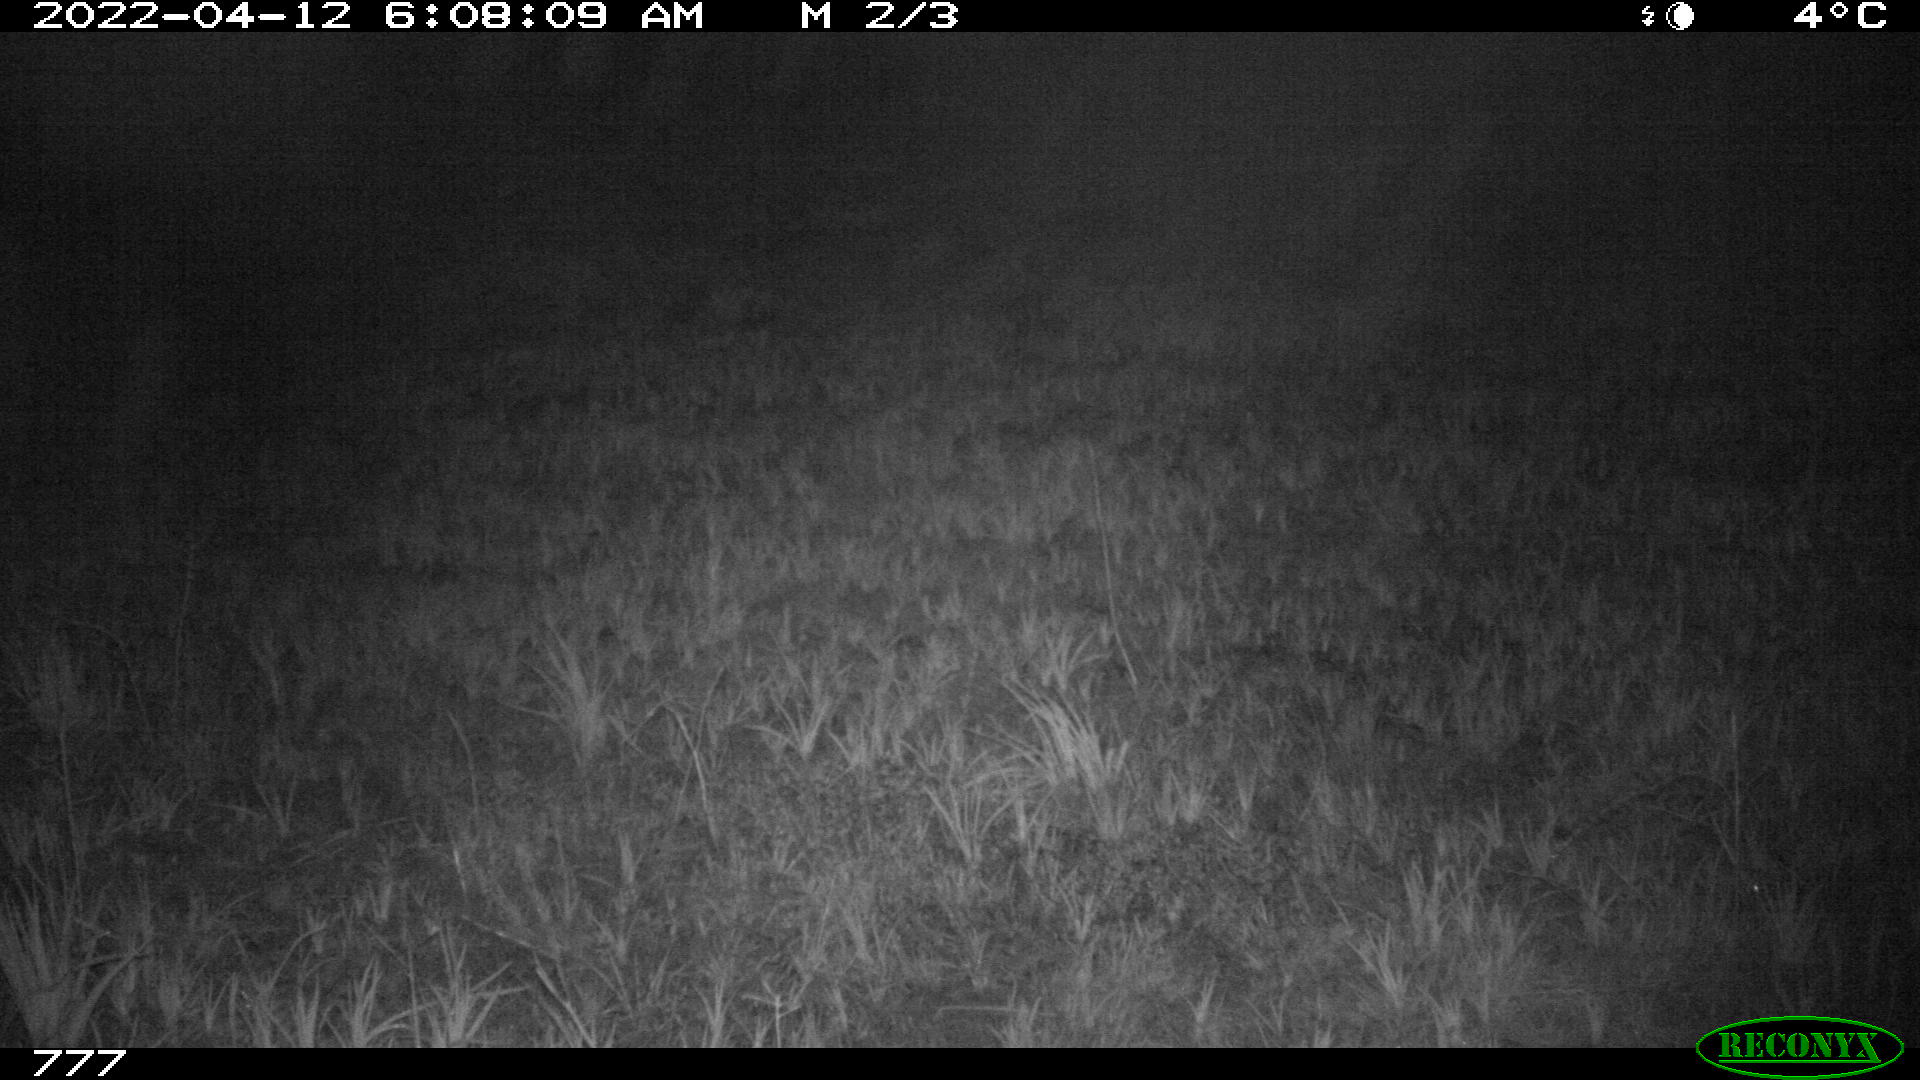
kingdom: Animalia
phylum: Chordata
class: Mammalia
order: Perissodactyla
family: Equidae
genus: Equus
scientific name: Equus caballus
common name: Horse
